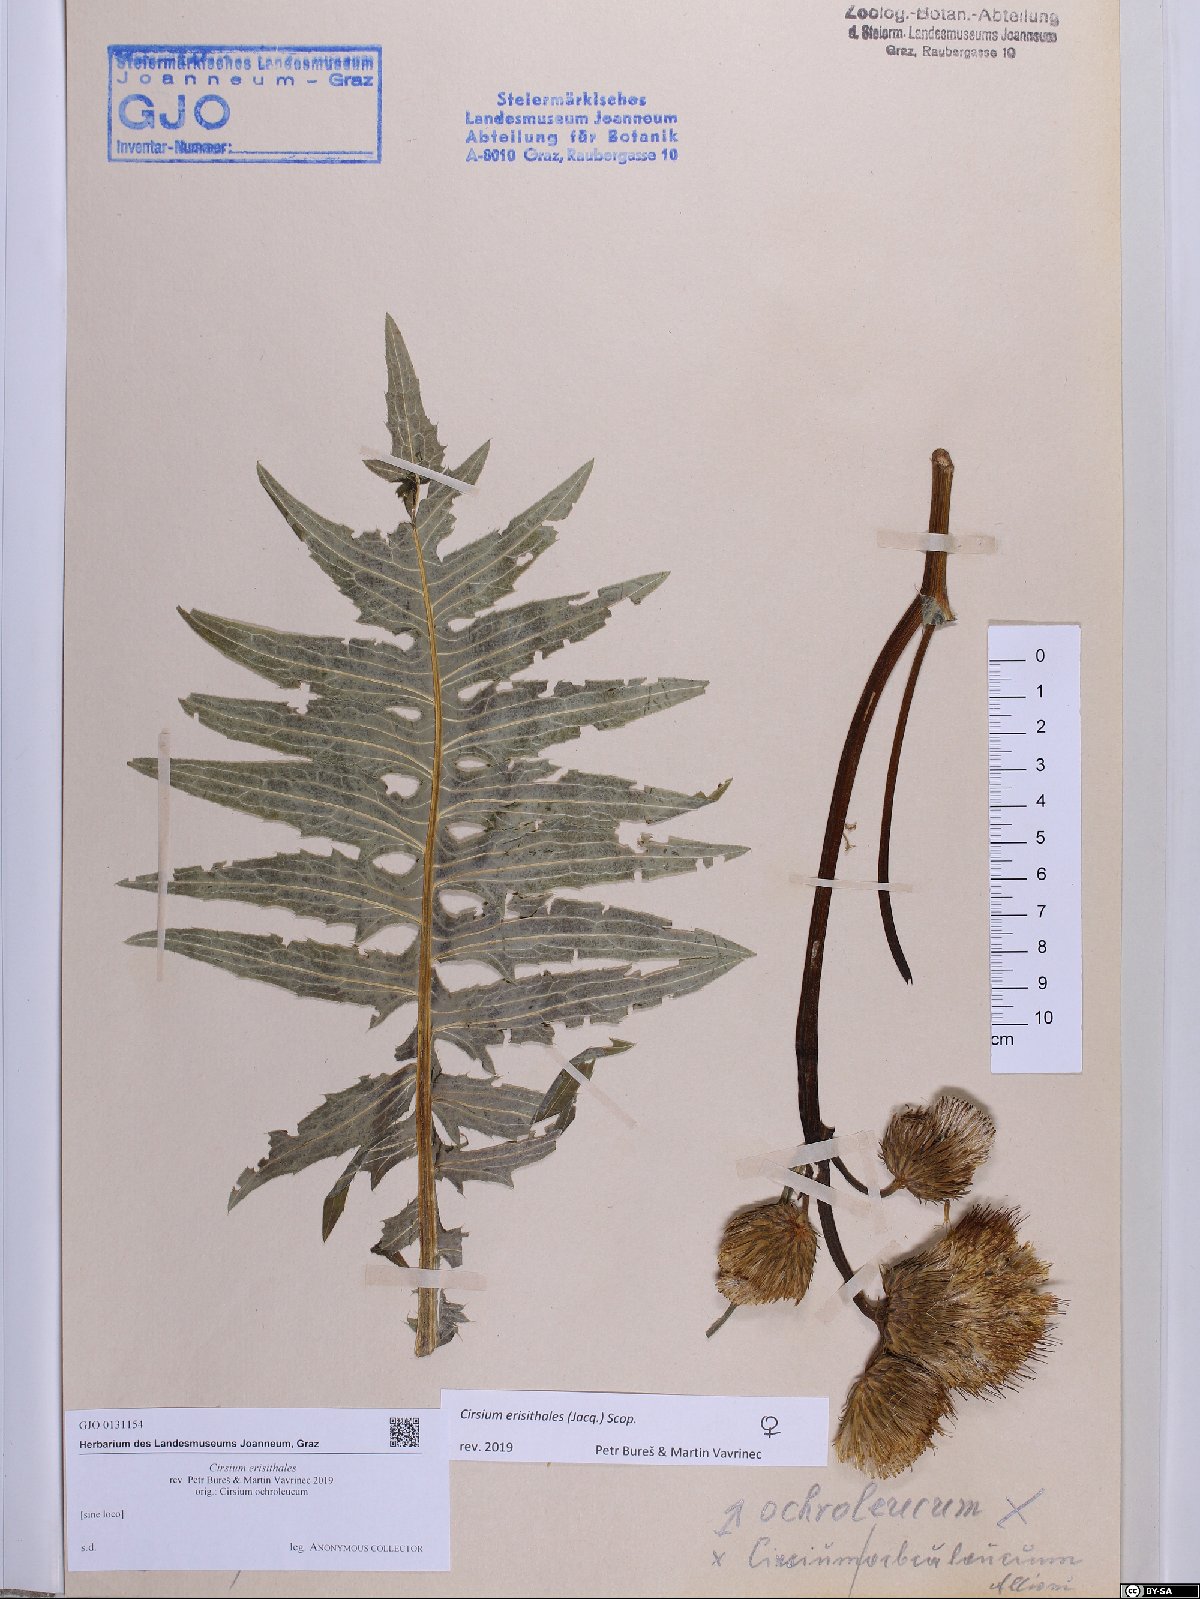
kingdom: Plantae
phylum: Tracheophyta
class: Magnoliopsida
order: Asterales
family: Asteraceae
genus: Cirsium
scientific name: Cirsium erisithales
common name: Yellow thistle
